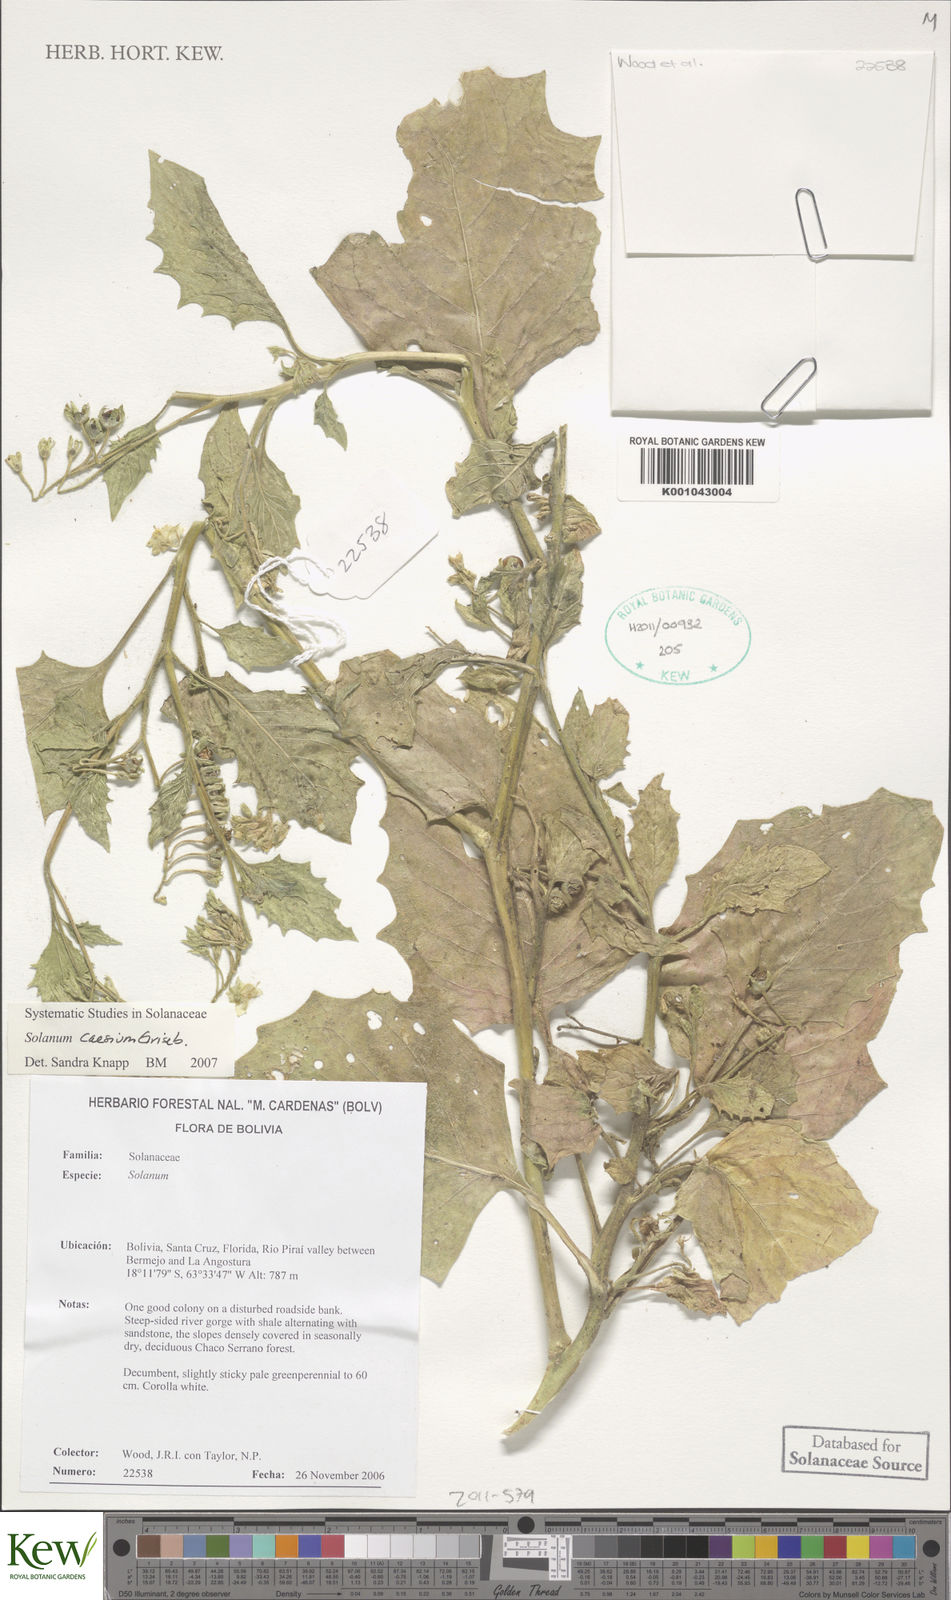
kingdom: Plantae
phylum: Tracheophyta
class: Magnoliopsida
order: Solanales
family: Solanaceae
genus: Solanum
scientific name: Solanum caesium
